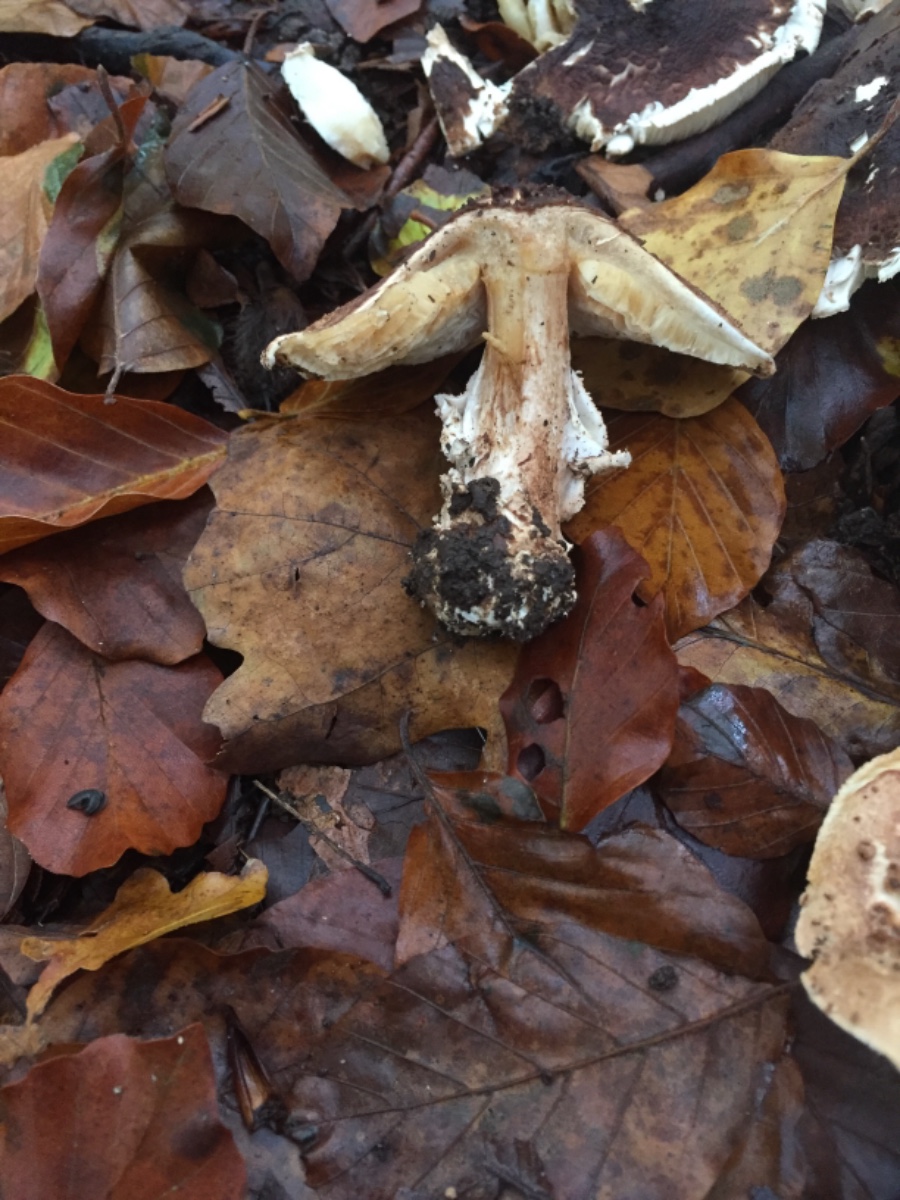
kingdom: Fungi
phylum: Basidiomycota
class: Agaricomycetes
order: Agaricales
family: Agaricaceae
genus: Echinoderma
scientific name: Echinoderma asperum
